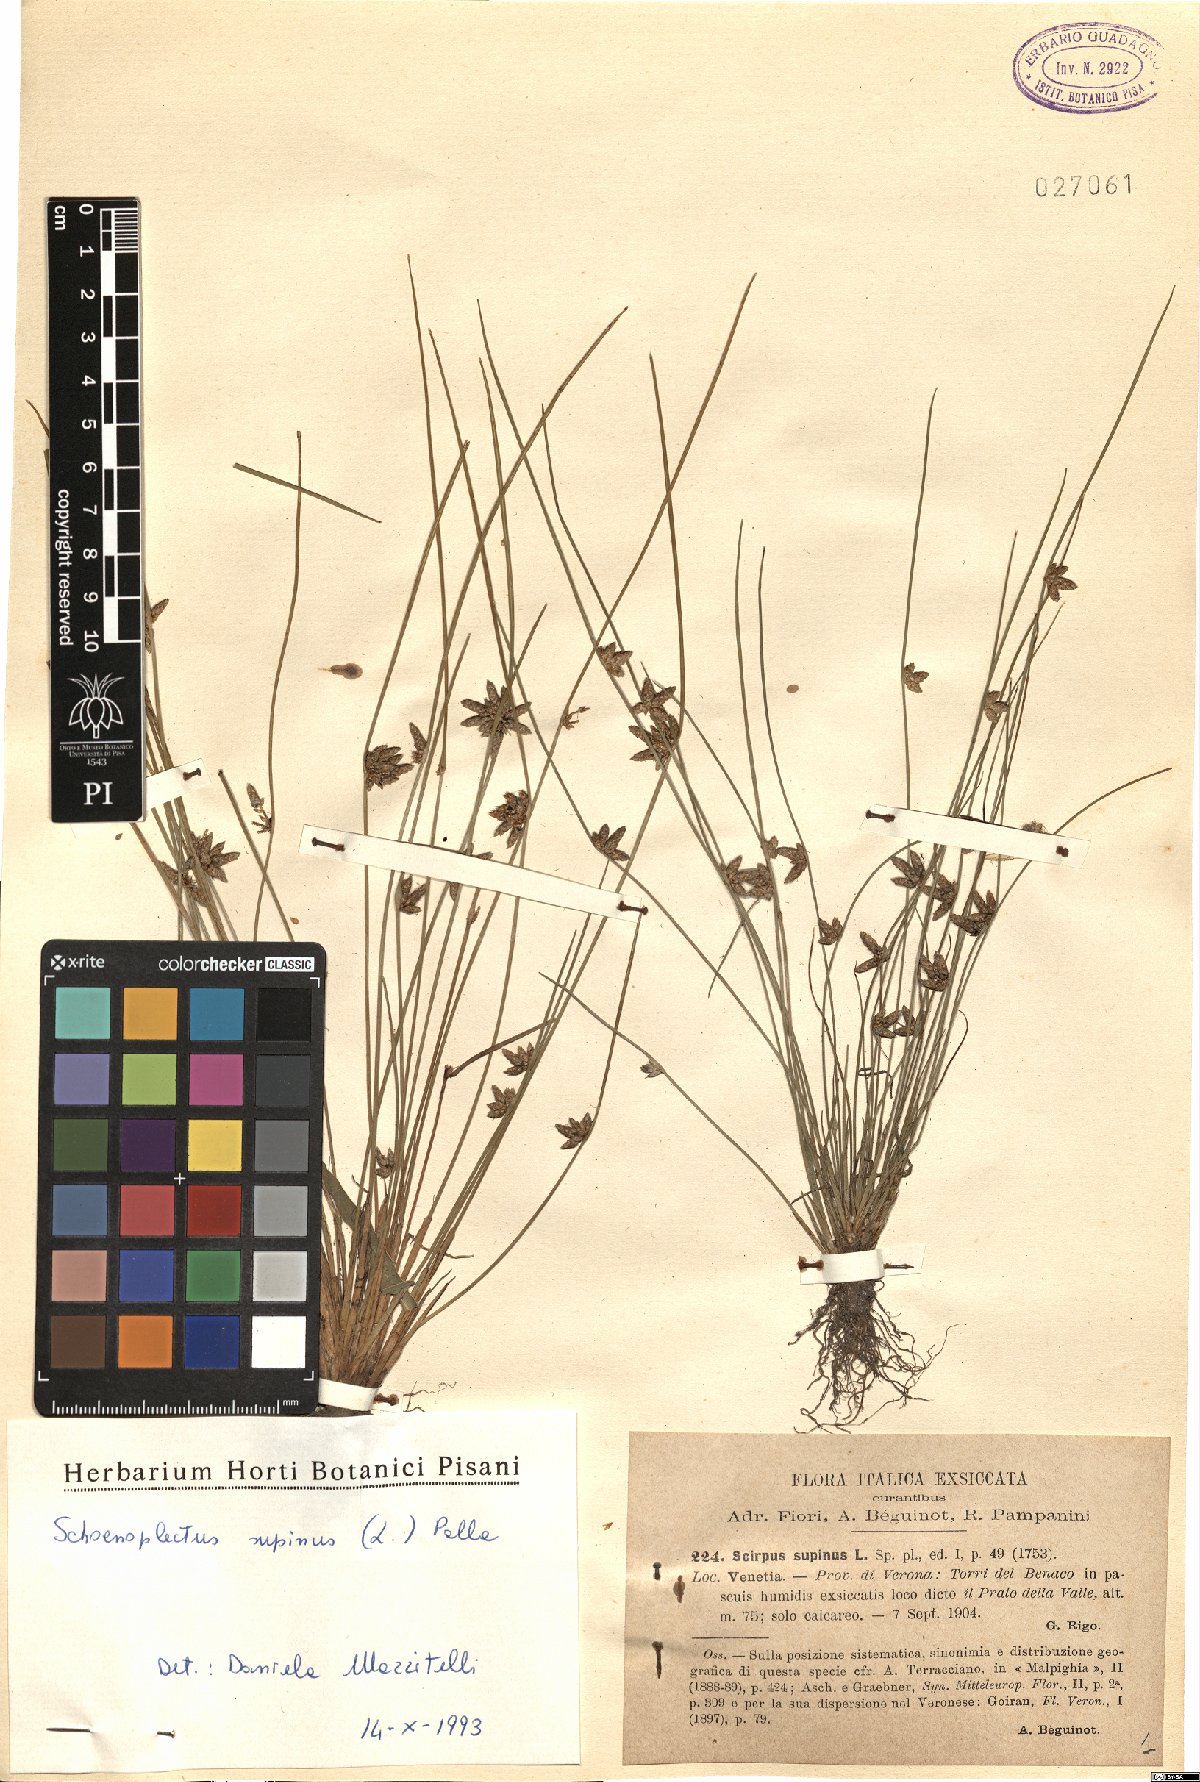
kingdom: Plantae
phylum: Tracheophyta
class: Liliopsida
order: Poales
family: Cyperaceae
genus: Schoenoplectiella
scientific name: Schoenoplectiella supina
